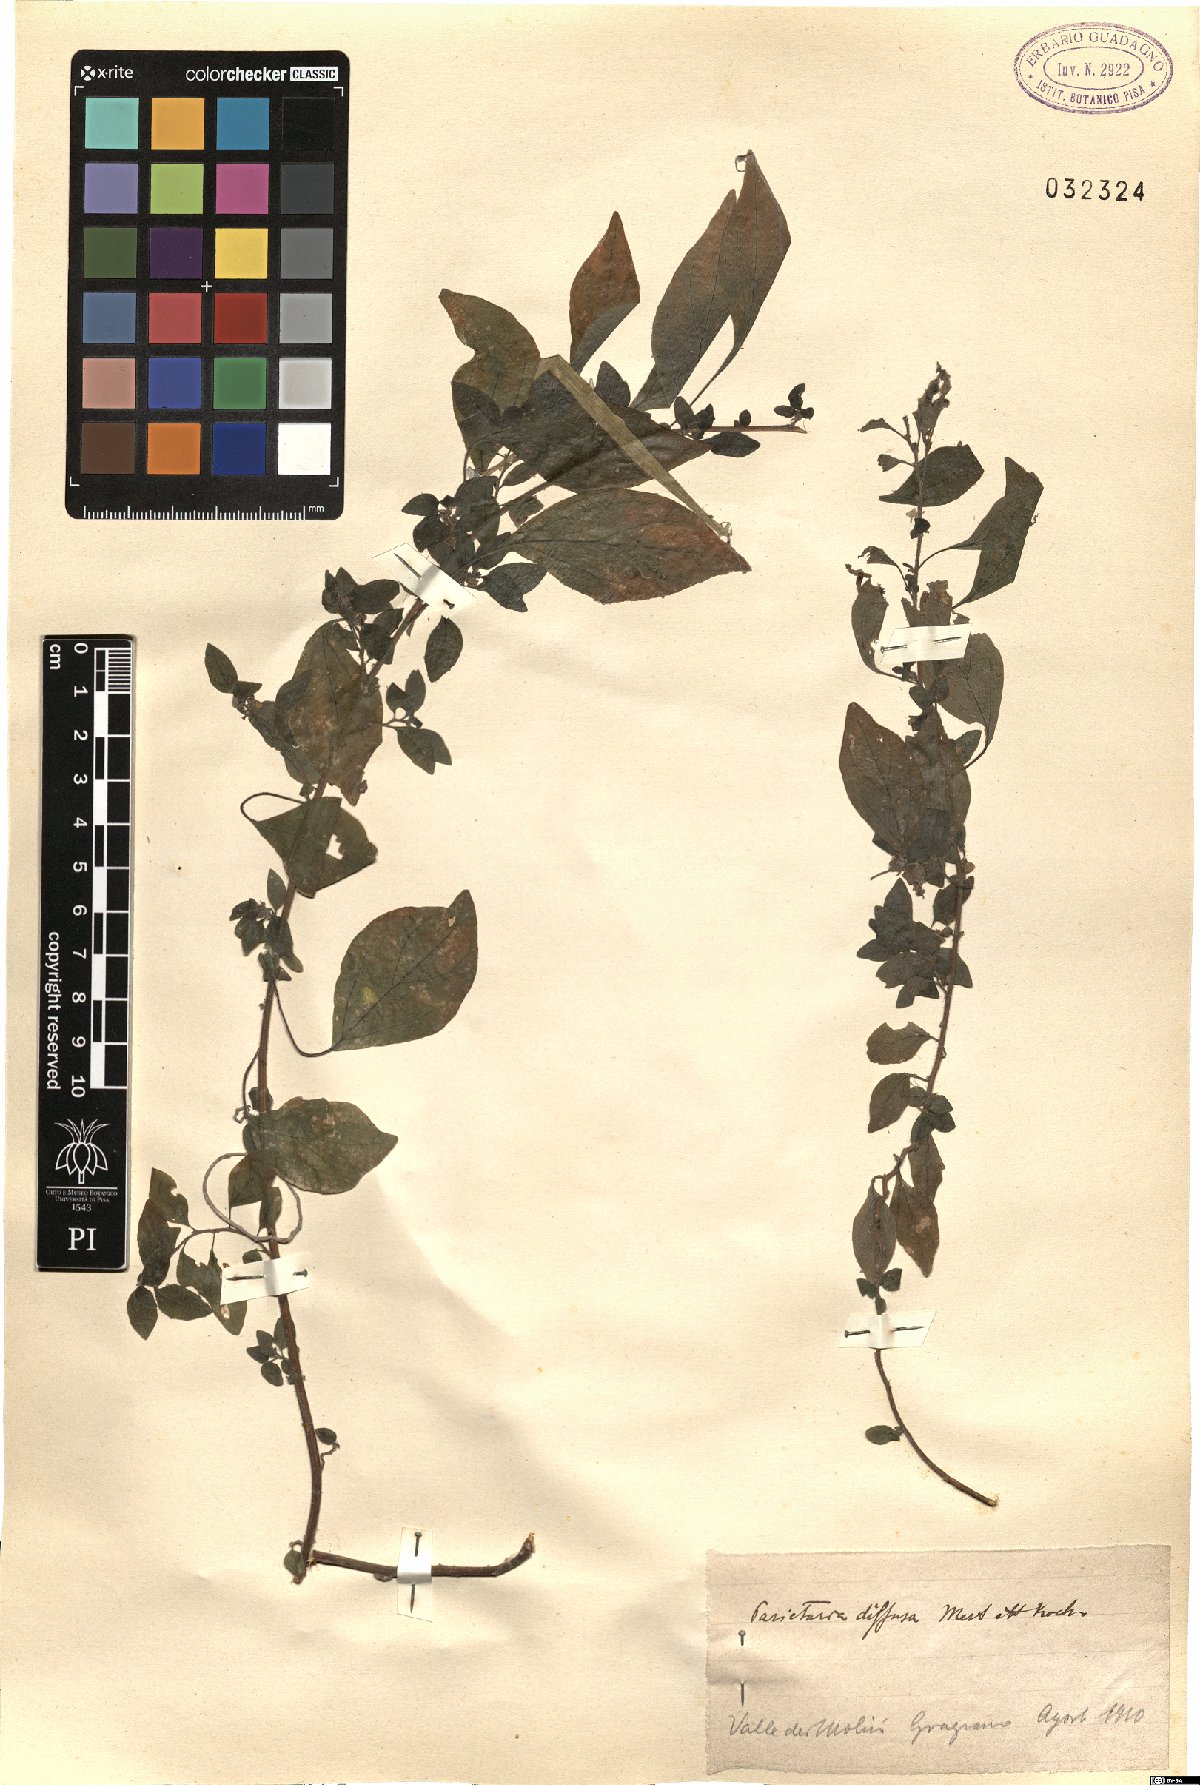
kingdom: Plantae
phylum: Tracheophyta
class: Magnoliopsida
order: Rosales
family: Urticaceae
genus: Parietaria
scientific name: Parietaria judaica
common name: Pellitory-of-the-wall
